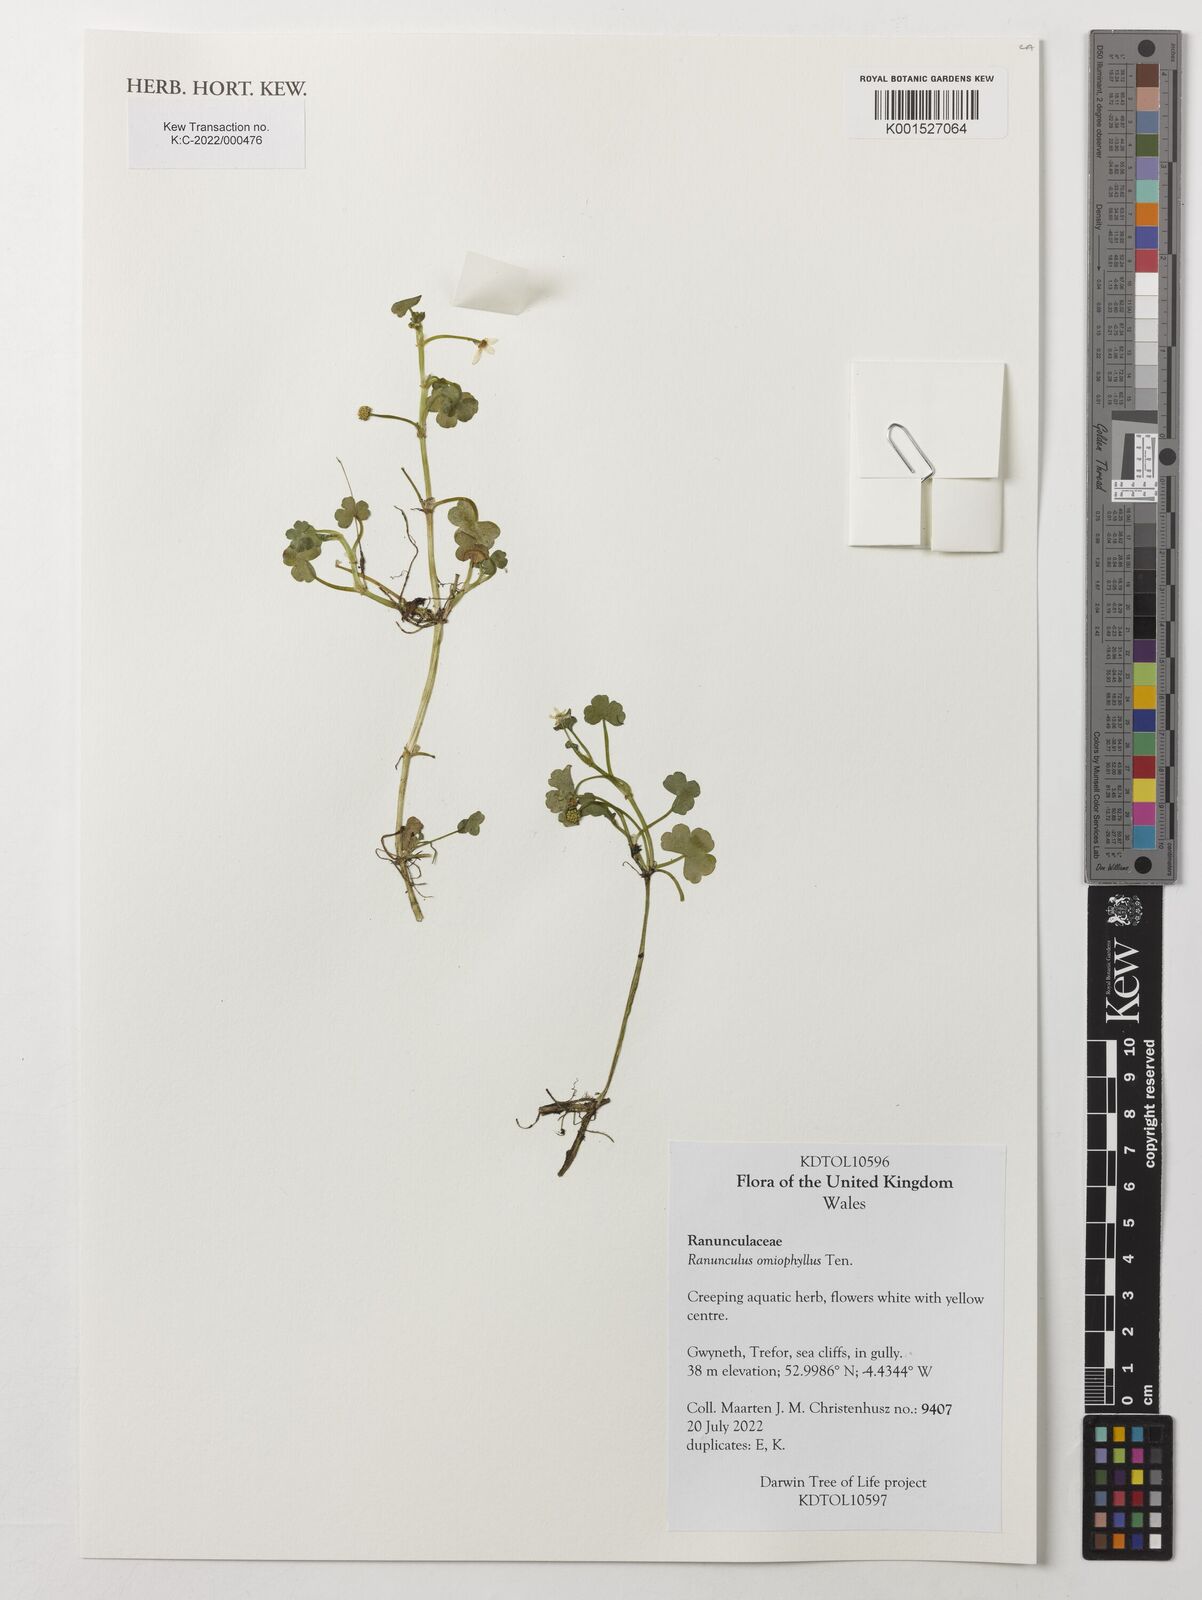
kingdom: Plantae
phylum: Tracheophyta
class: Magnoliopsida
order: Ranunculales
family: Ranunculaceae
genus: Ranunculus
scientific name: Ranunculus omiophyllus
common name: Round-leaved crowfoot
